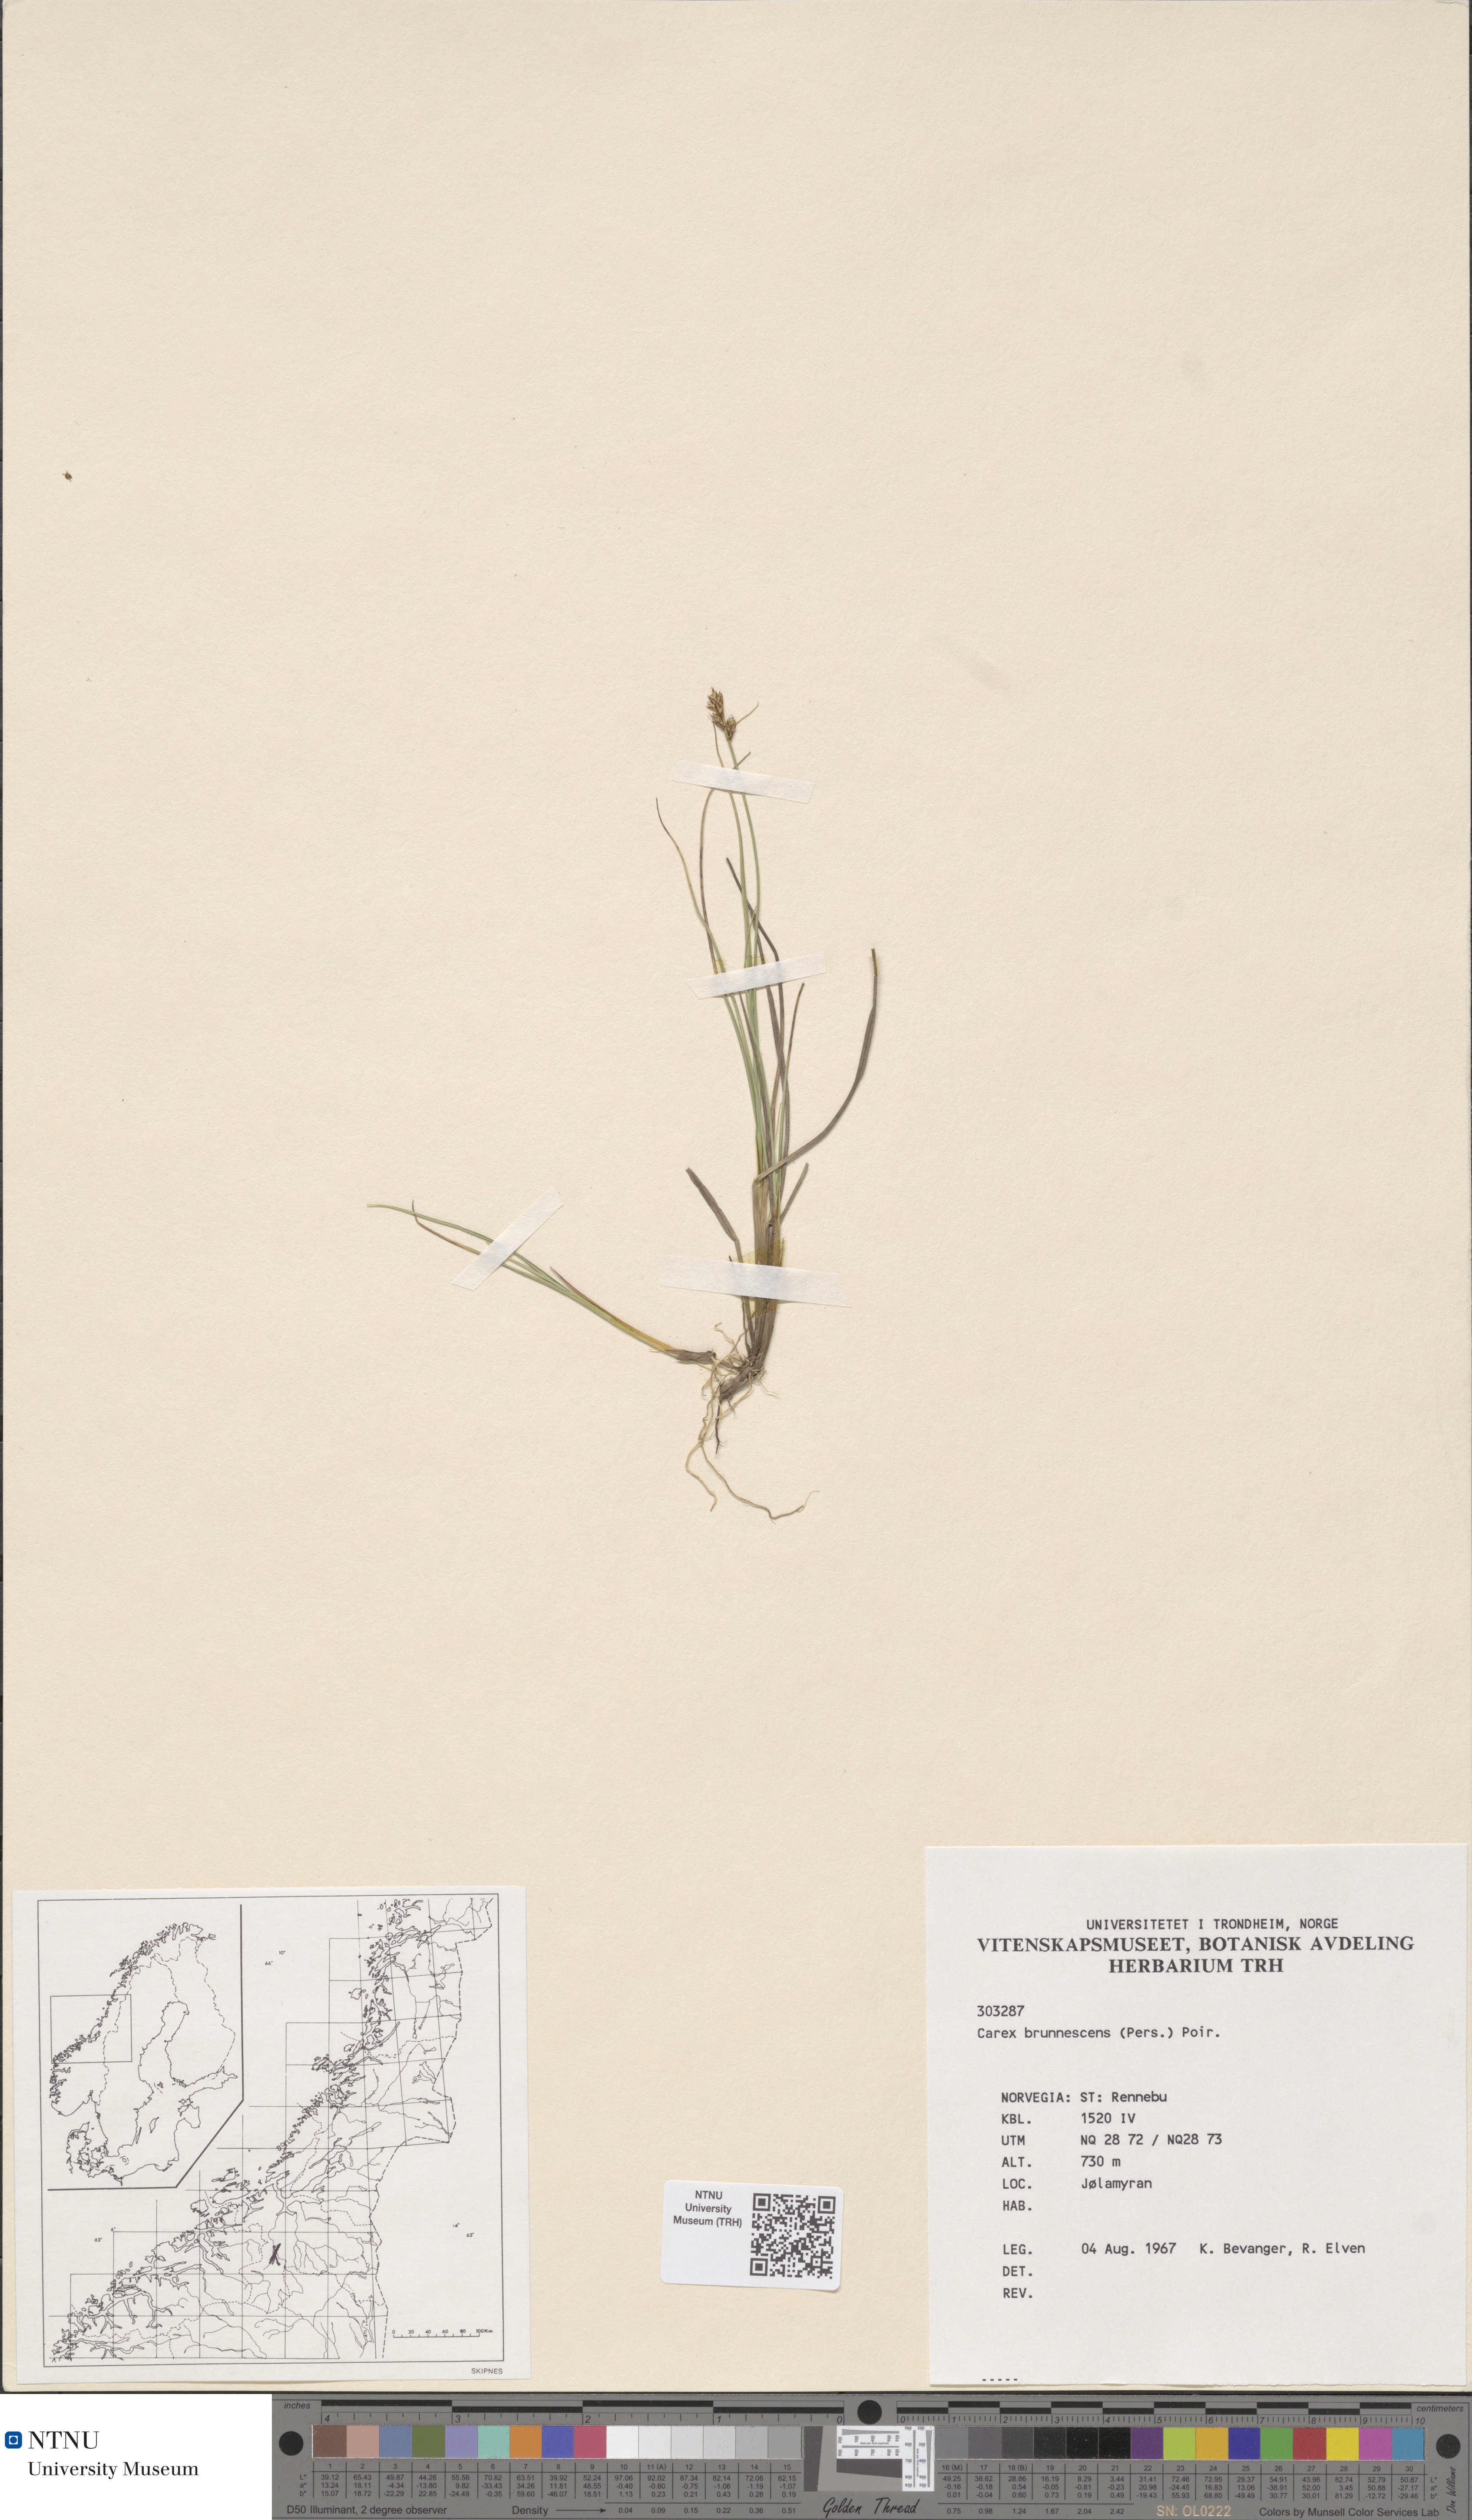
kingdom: Plantae
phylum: Tracheophyta
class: Liliopsida
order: Poales
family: Cyperaceae
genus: Carex
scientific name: Carex elongata
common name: Elongated sedge
